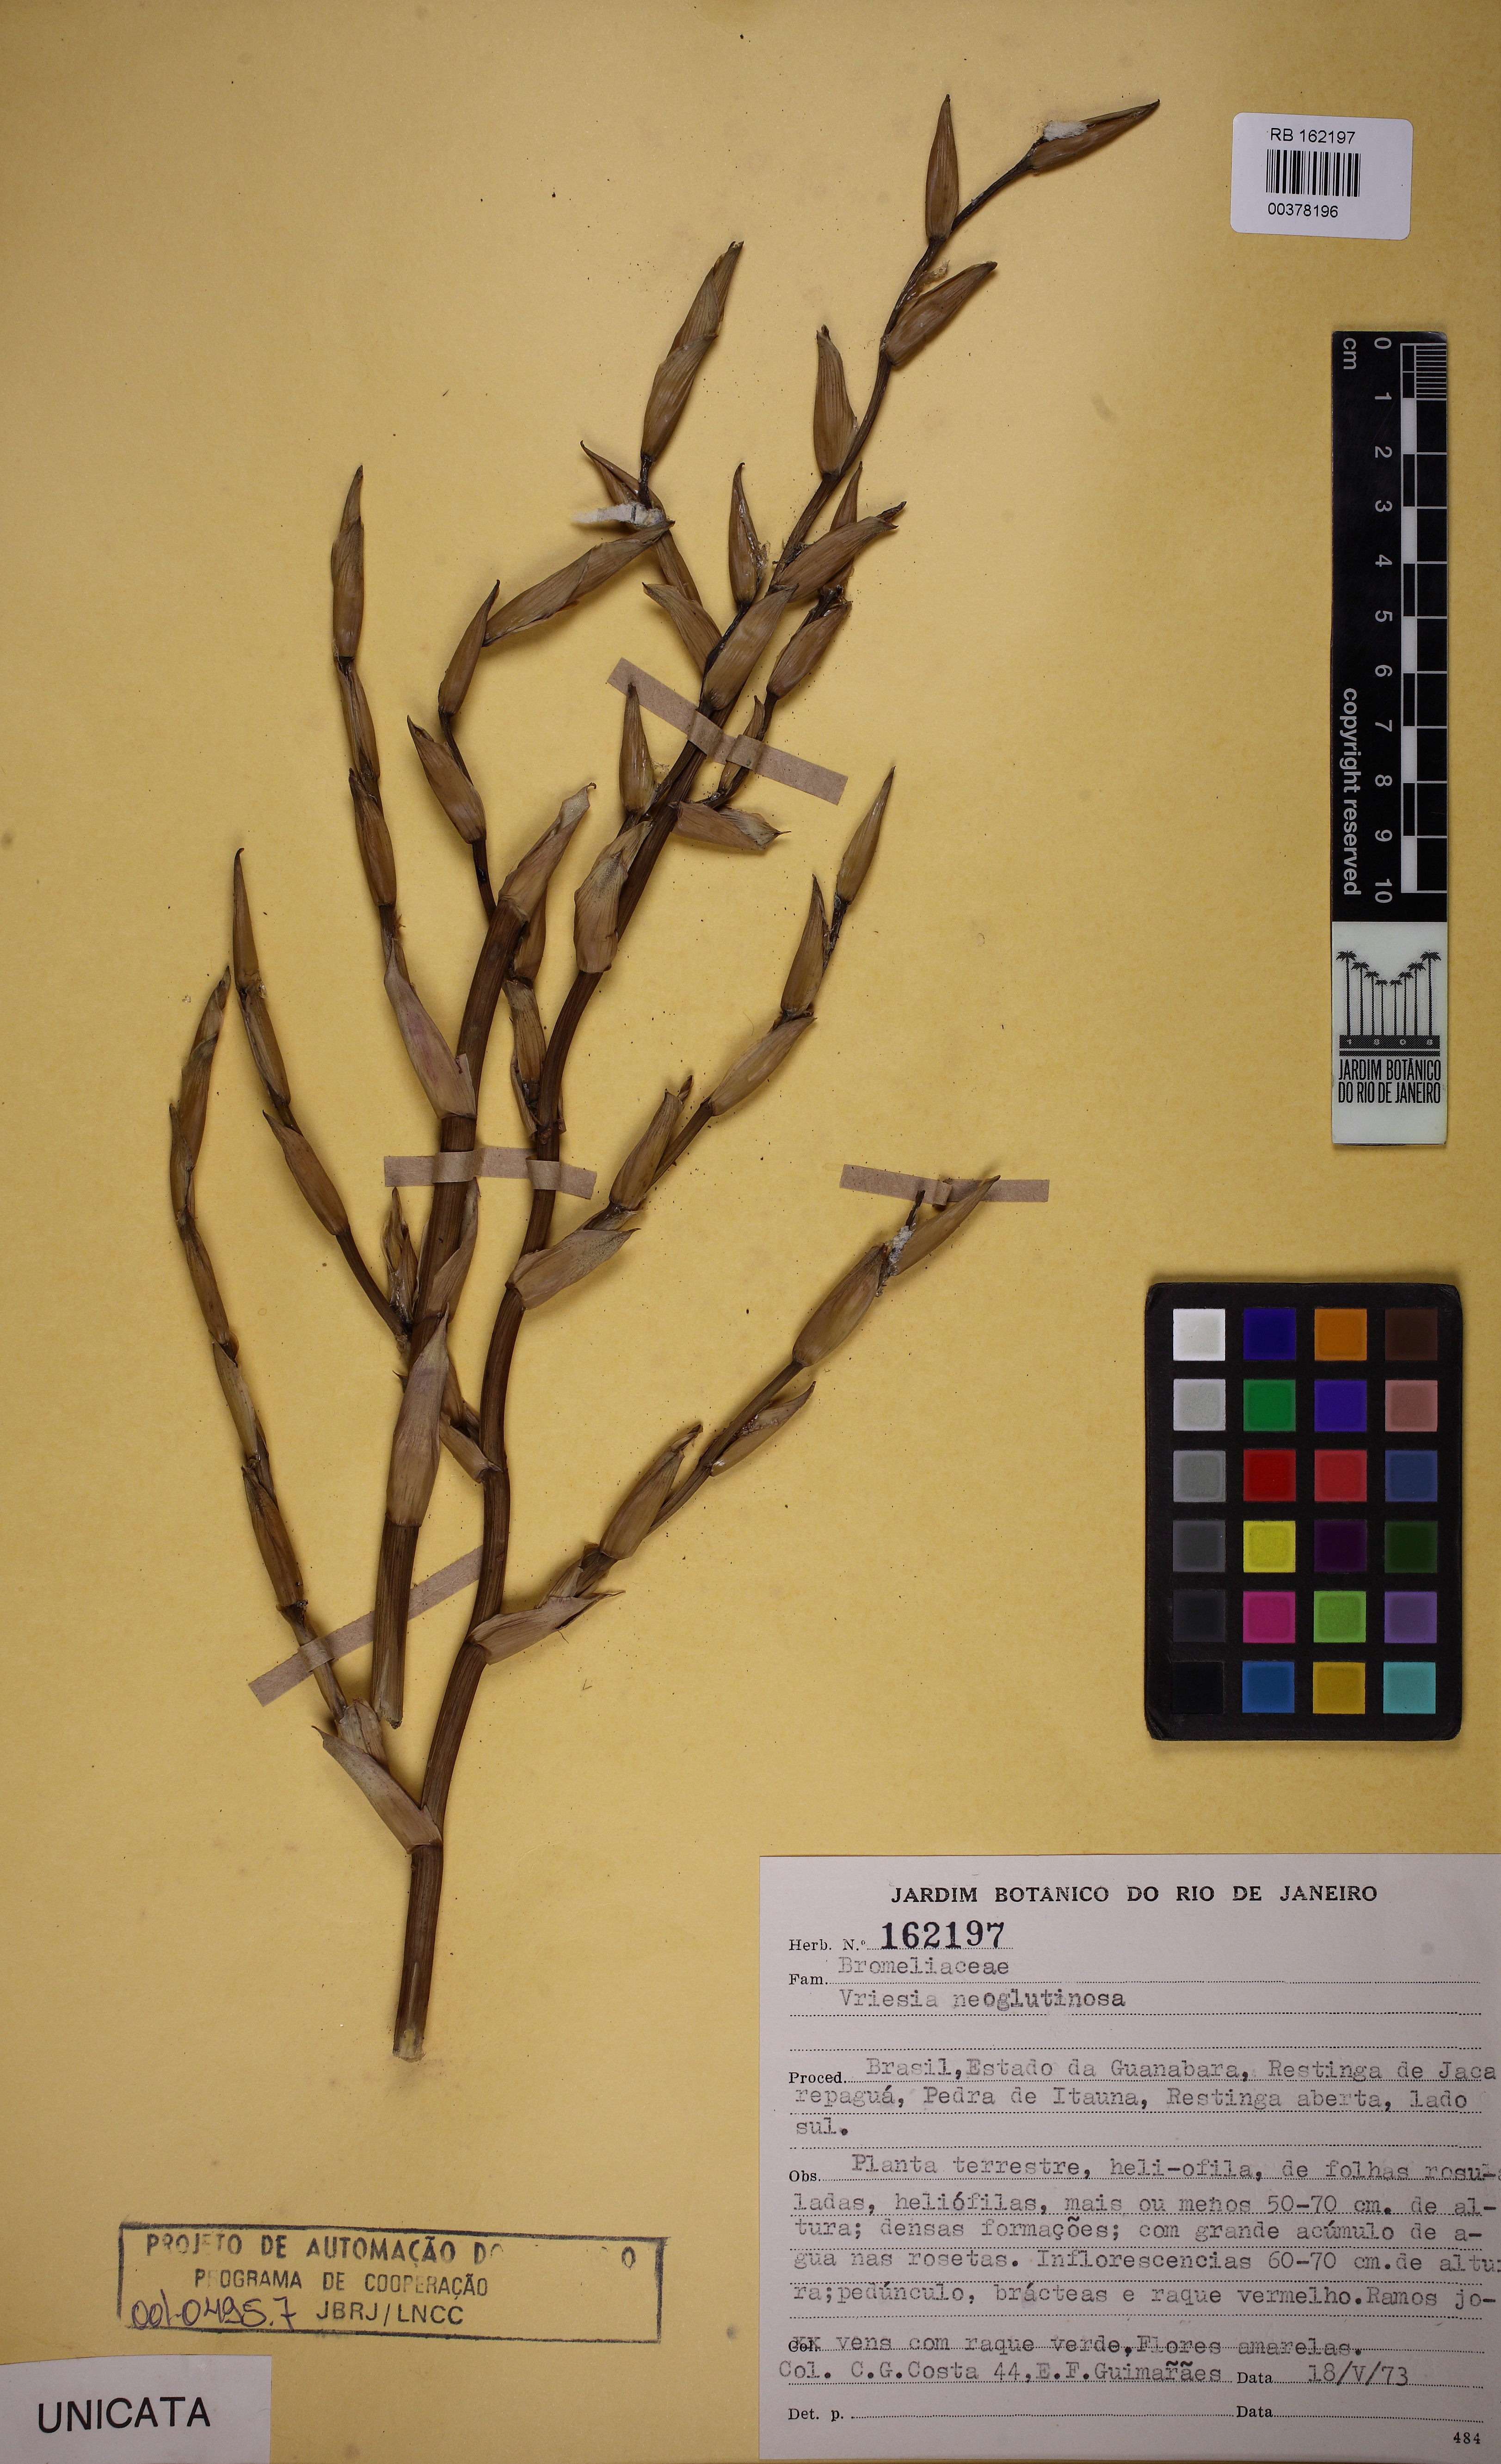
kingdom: Plantae
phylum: Tracheophyta
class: Liliopsida
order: Poales
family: Bromeliaceae
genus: Vriesea
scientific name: Vriesea neoglutinosa
